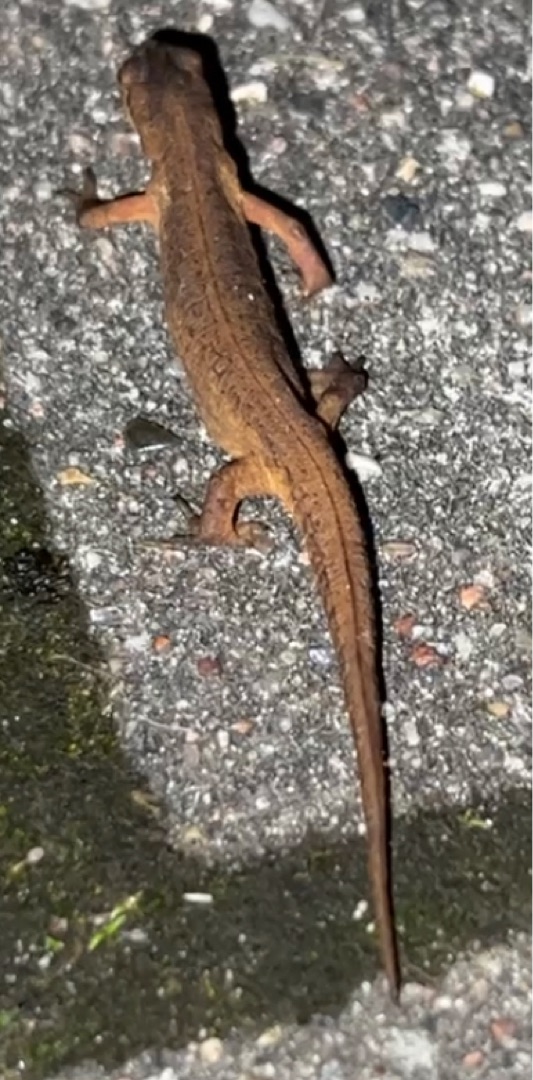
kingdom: Animalia
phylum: Chordata
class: Amphibia
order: Caudata
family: Salamandridae
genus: Lissotriton
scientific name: Lissotriton vulgaris
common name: Lille vandsalamander
